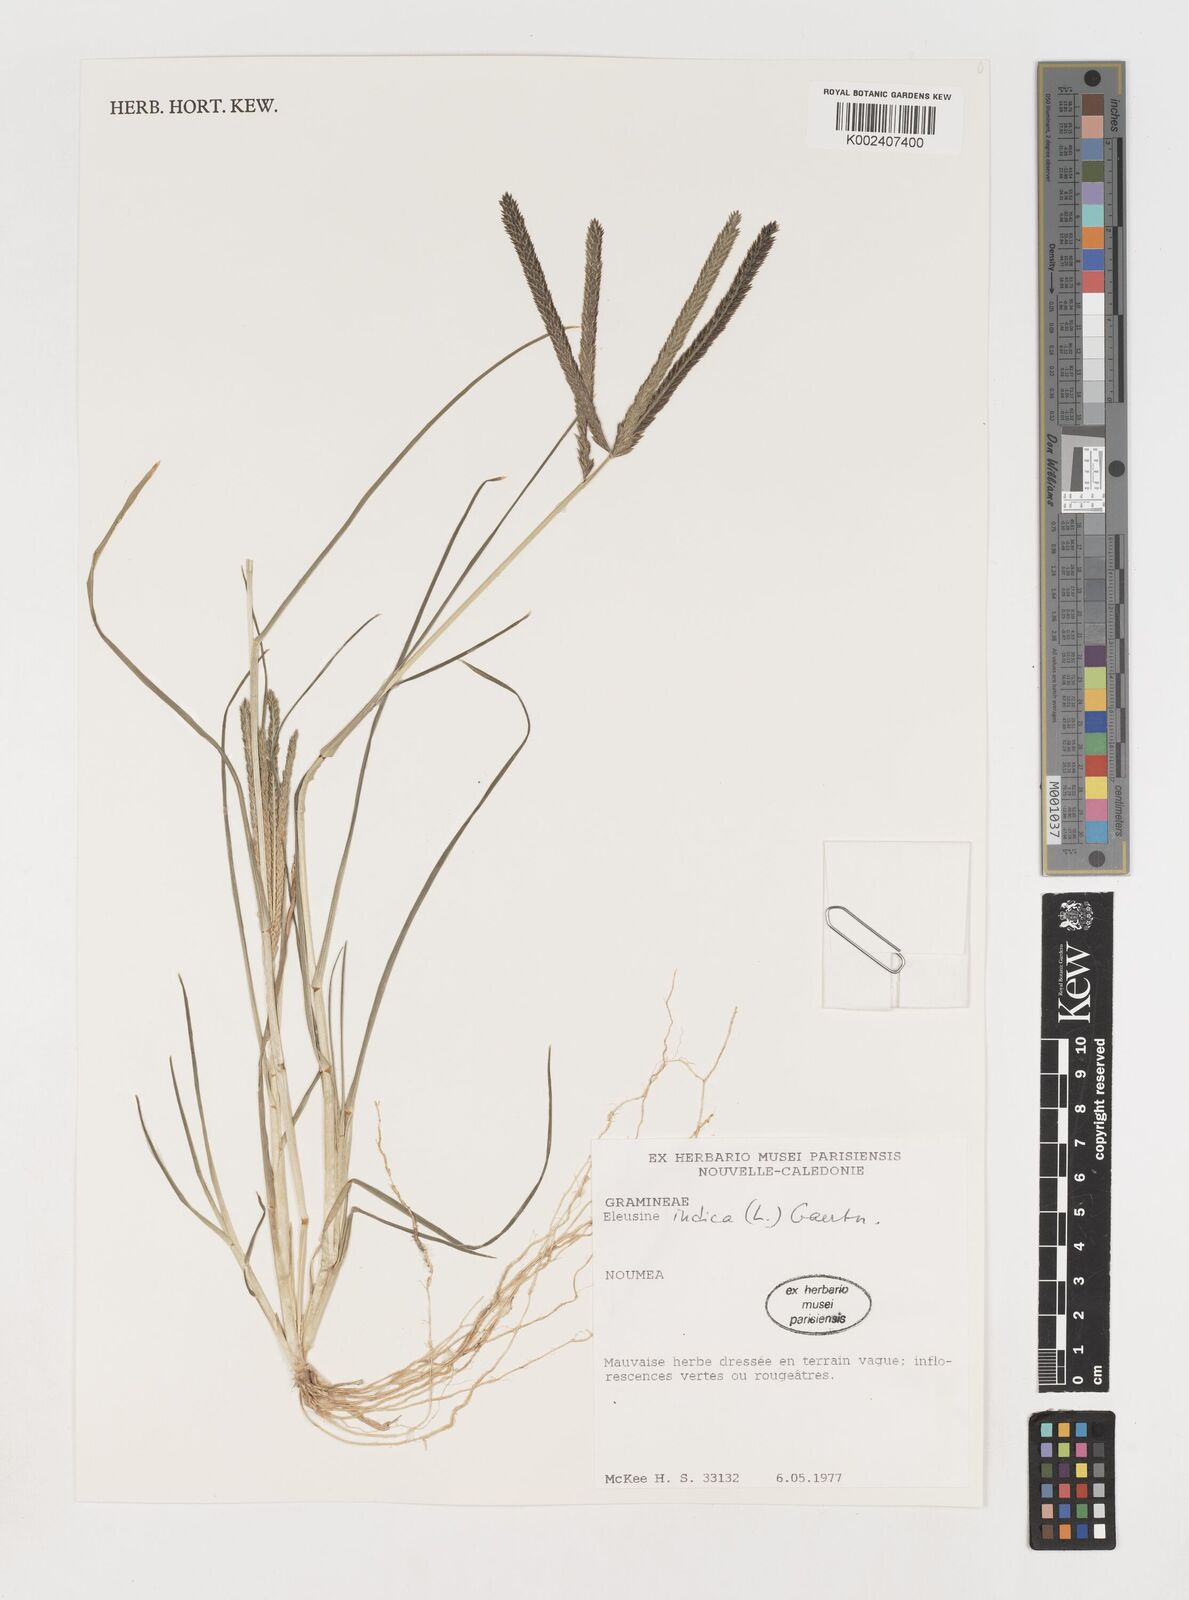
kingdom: Plantae
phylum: Tracheophyta
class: Liliopsida
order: Poales
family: Poaceae
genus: Eleusine
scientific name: Eleusine indica
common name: Yard-grass
